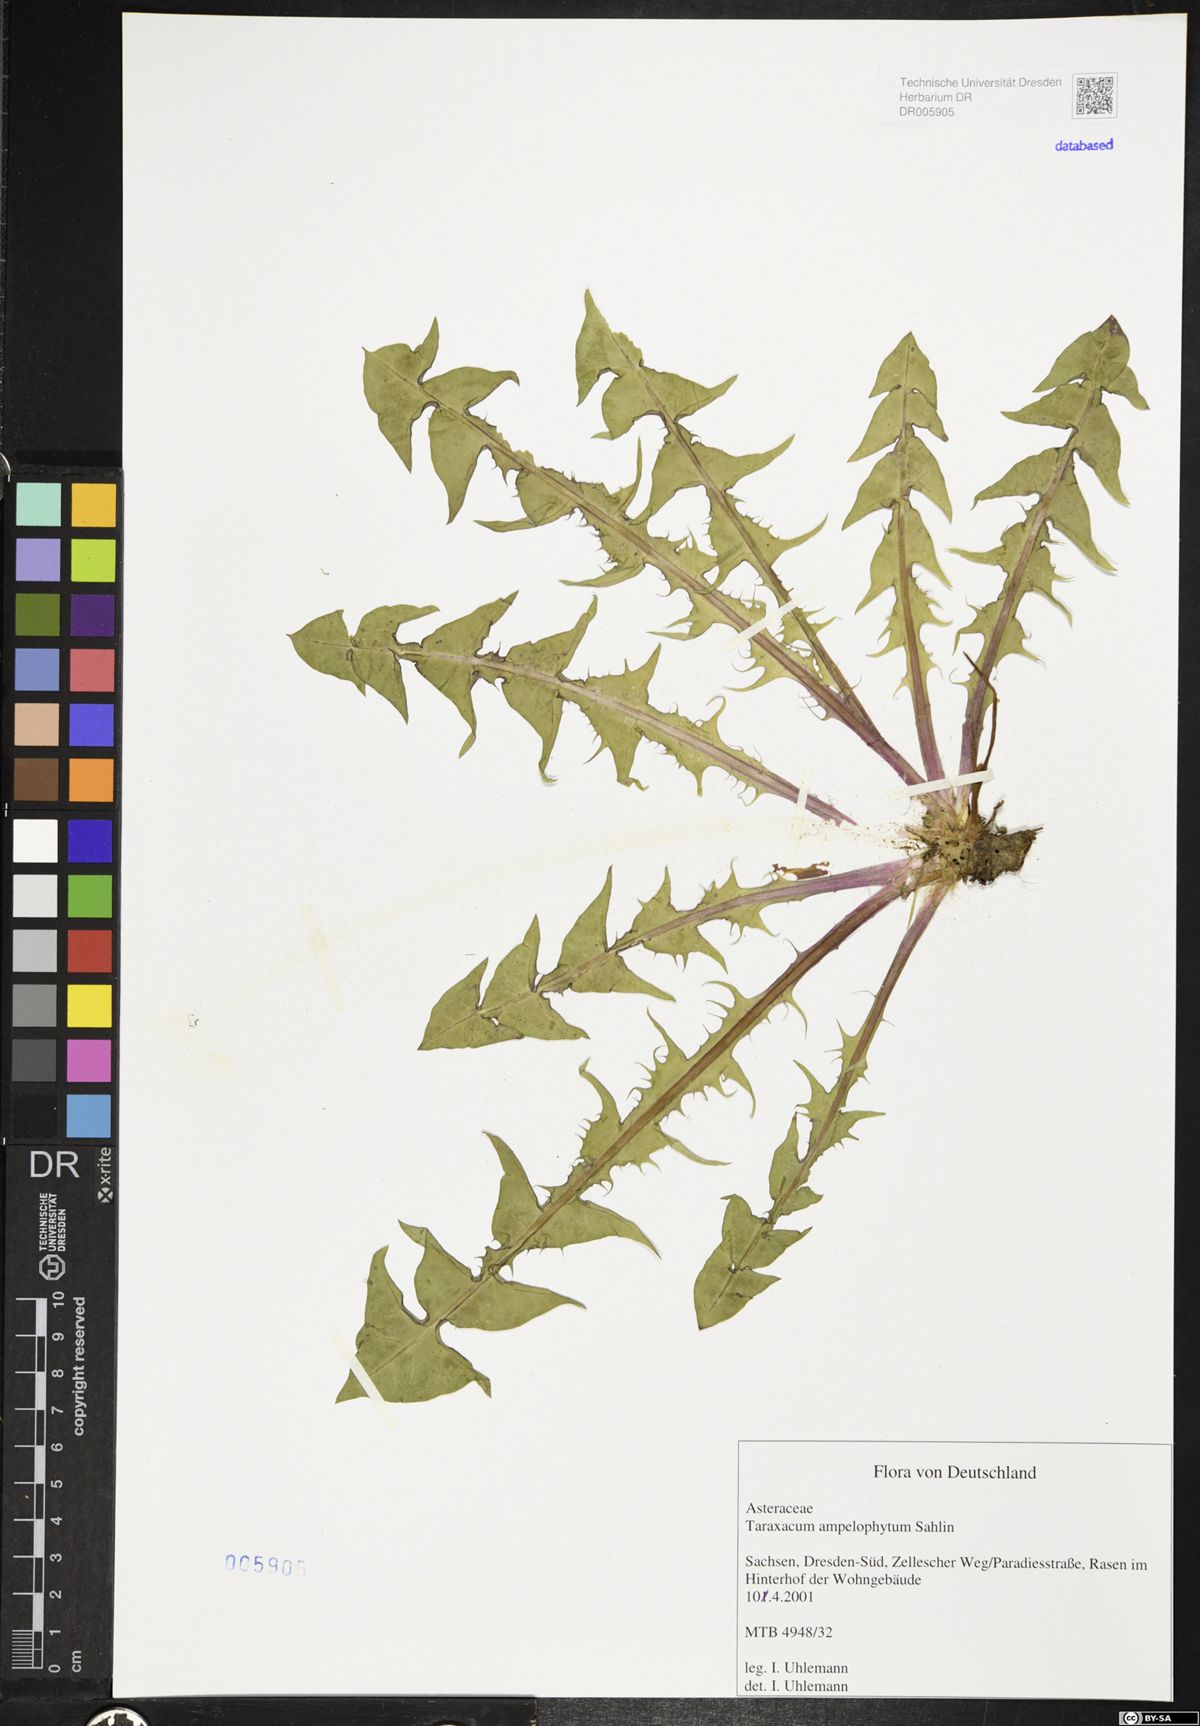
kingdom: Plantae
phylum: Tracheophyta
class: Magnoliopsida
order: Asterales
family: Asteraceae
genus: Taraxacum
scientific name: Taraxacum debrayi
